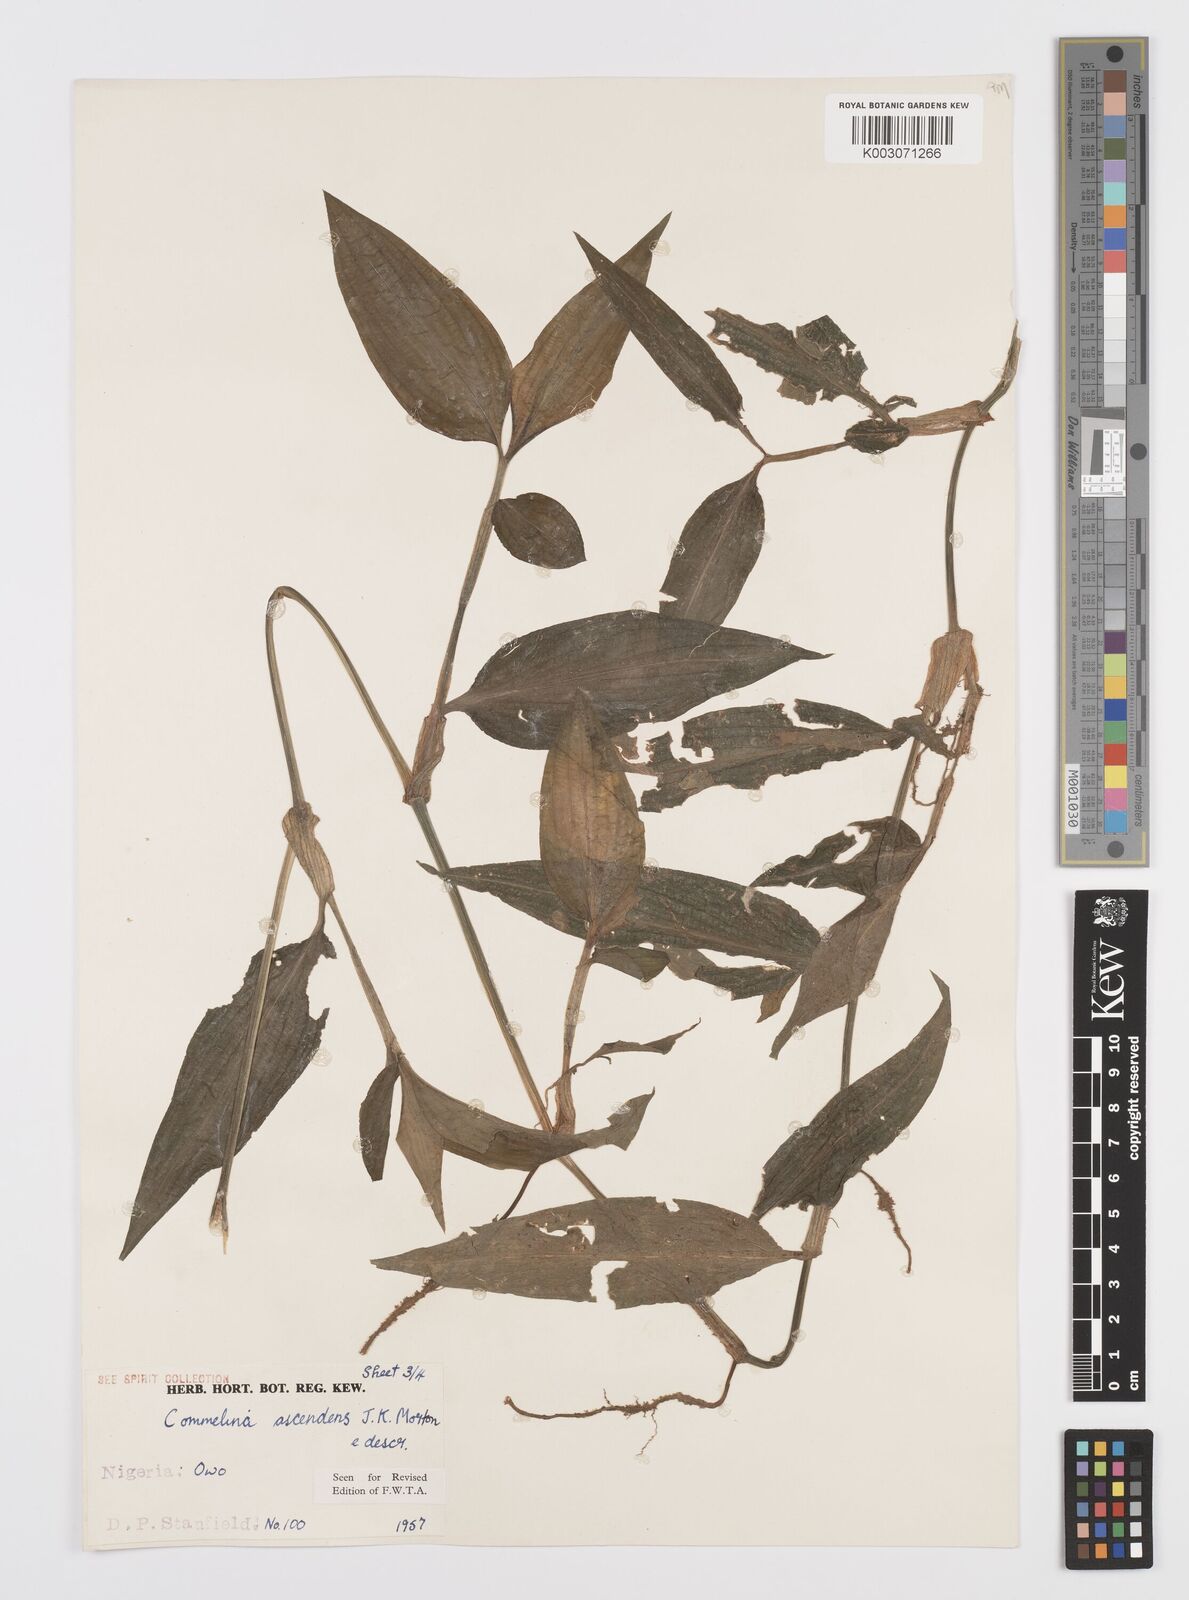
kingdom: Plantae
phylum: Tracheophyta
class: Liliopsida
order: Commelinales
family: Commelinaceae
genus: Commelina
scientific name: Commelina ascendens
